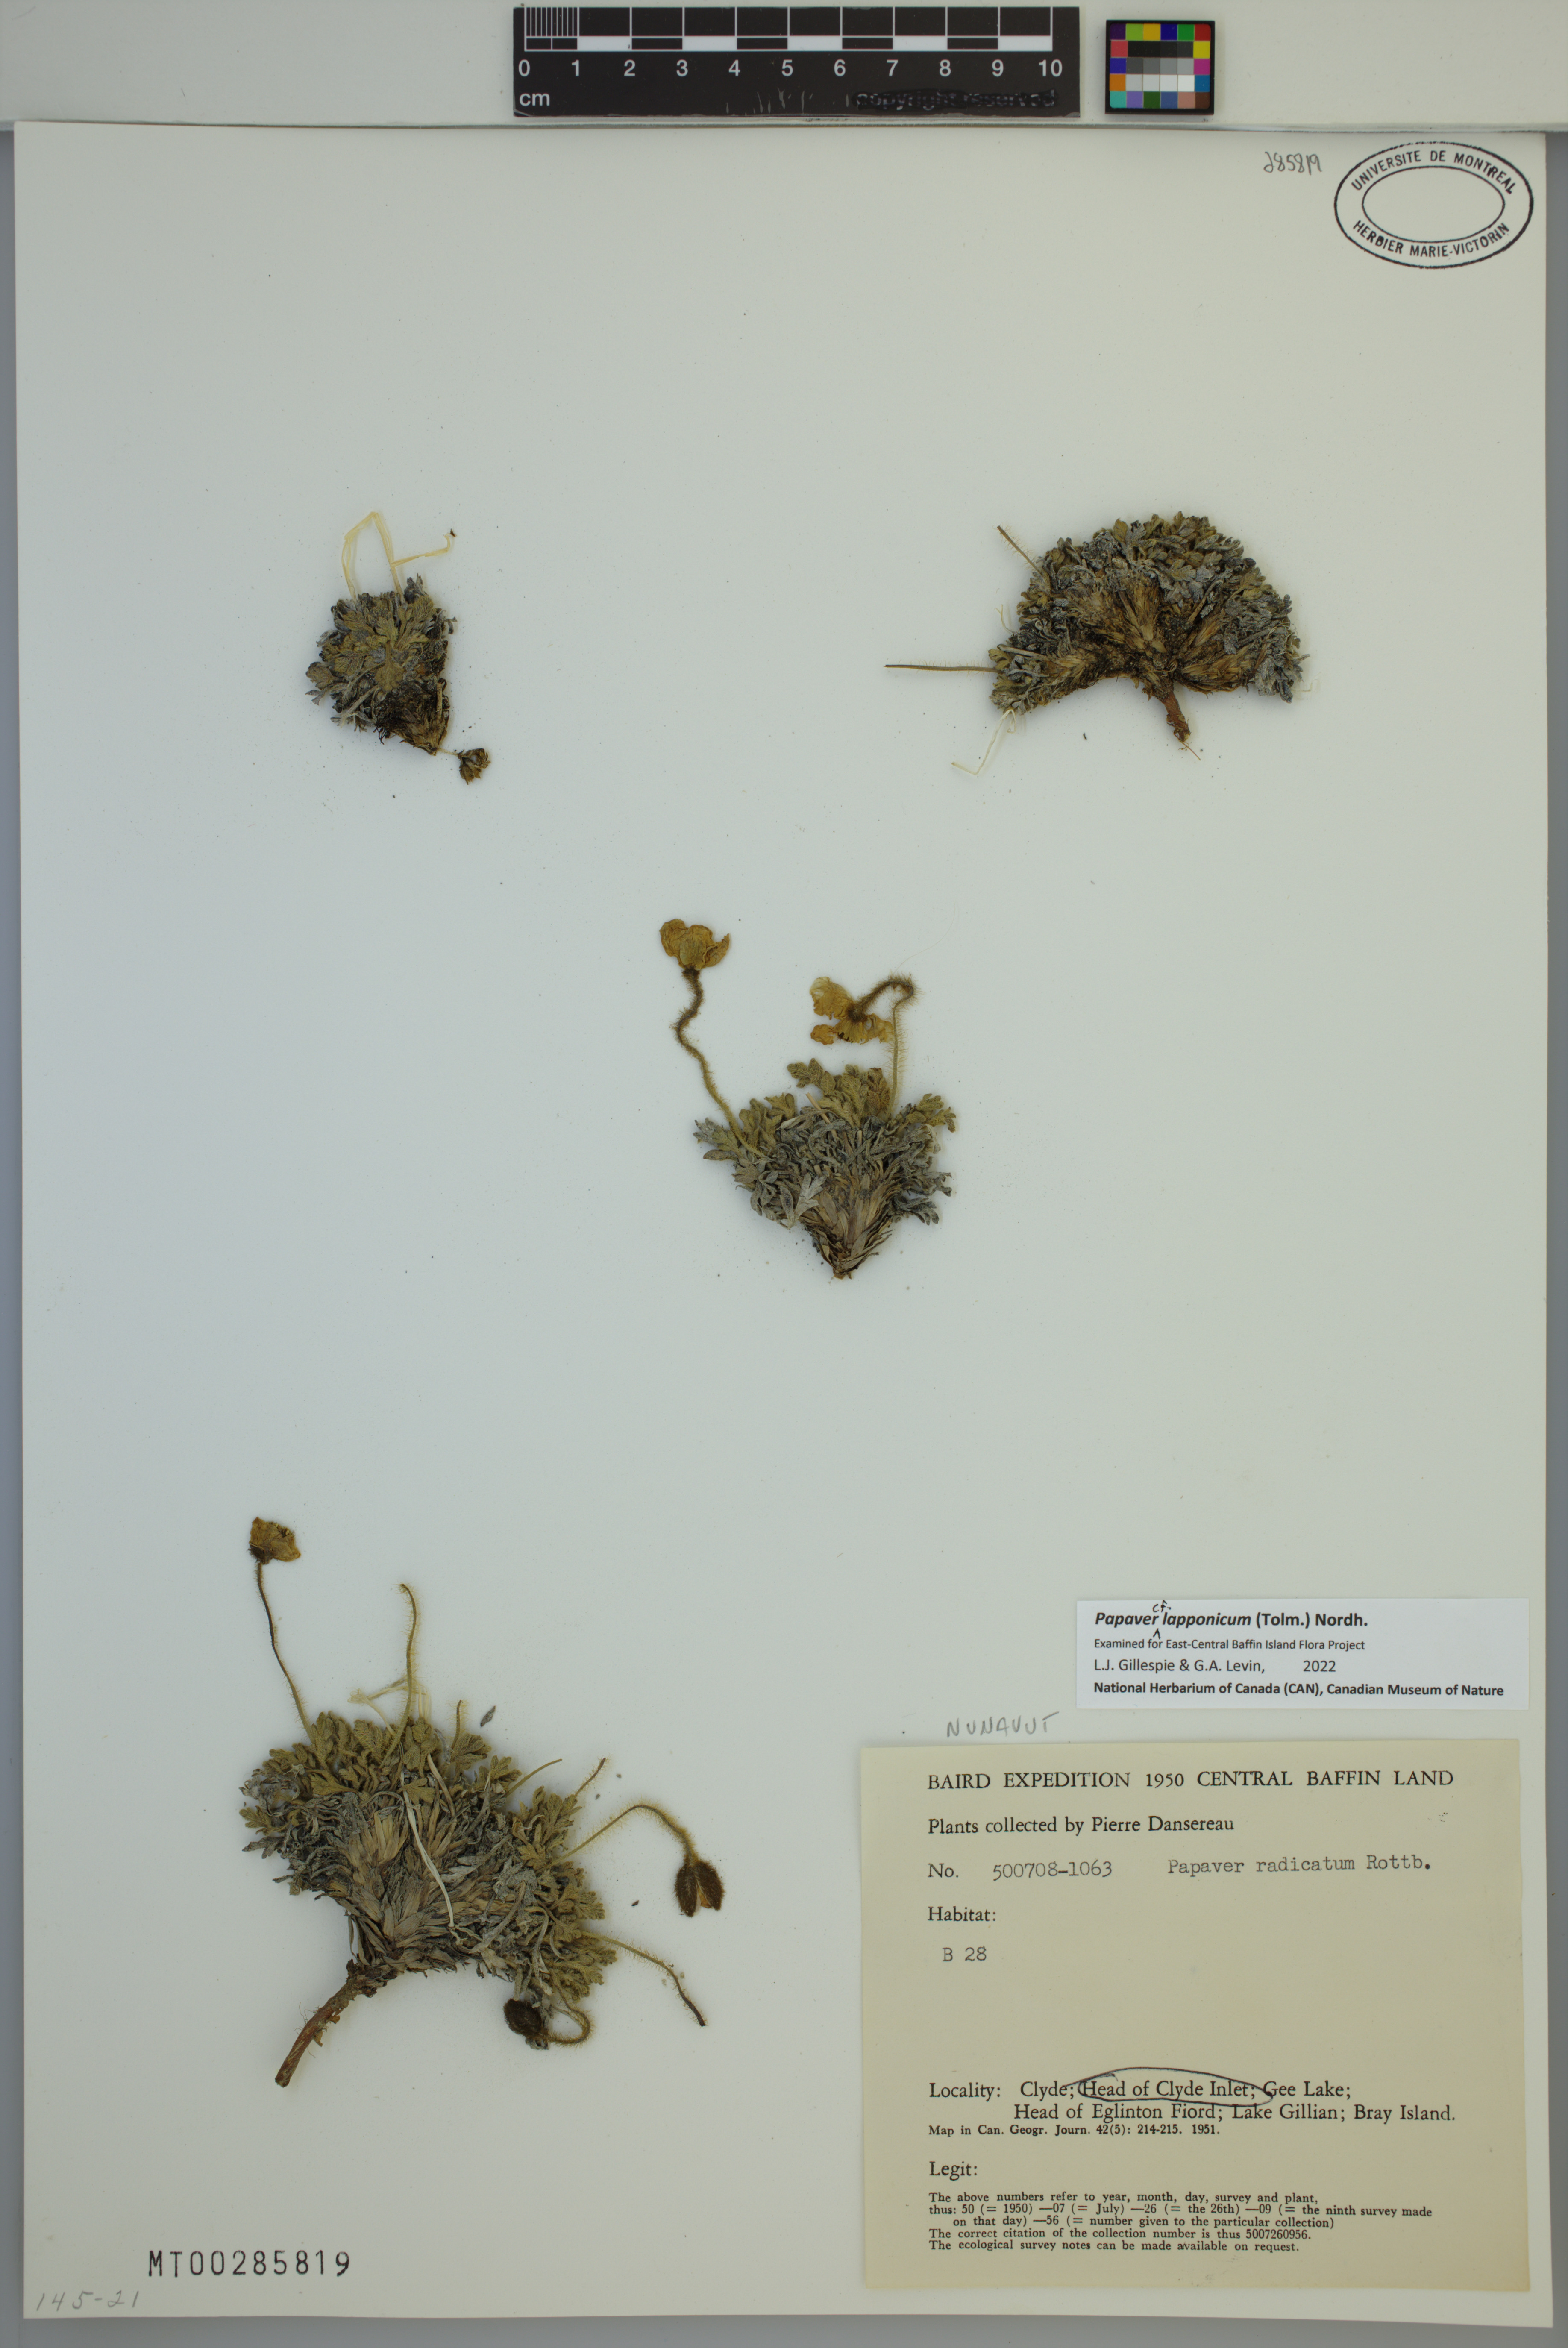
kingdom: Plantae
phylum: Tracheophyta
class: Magnoliopsida
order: Ranunculales
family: Papaveraceae
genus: Papaver
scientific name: Papaver lapponicum
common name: Lapland poppy
